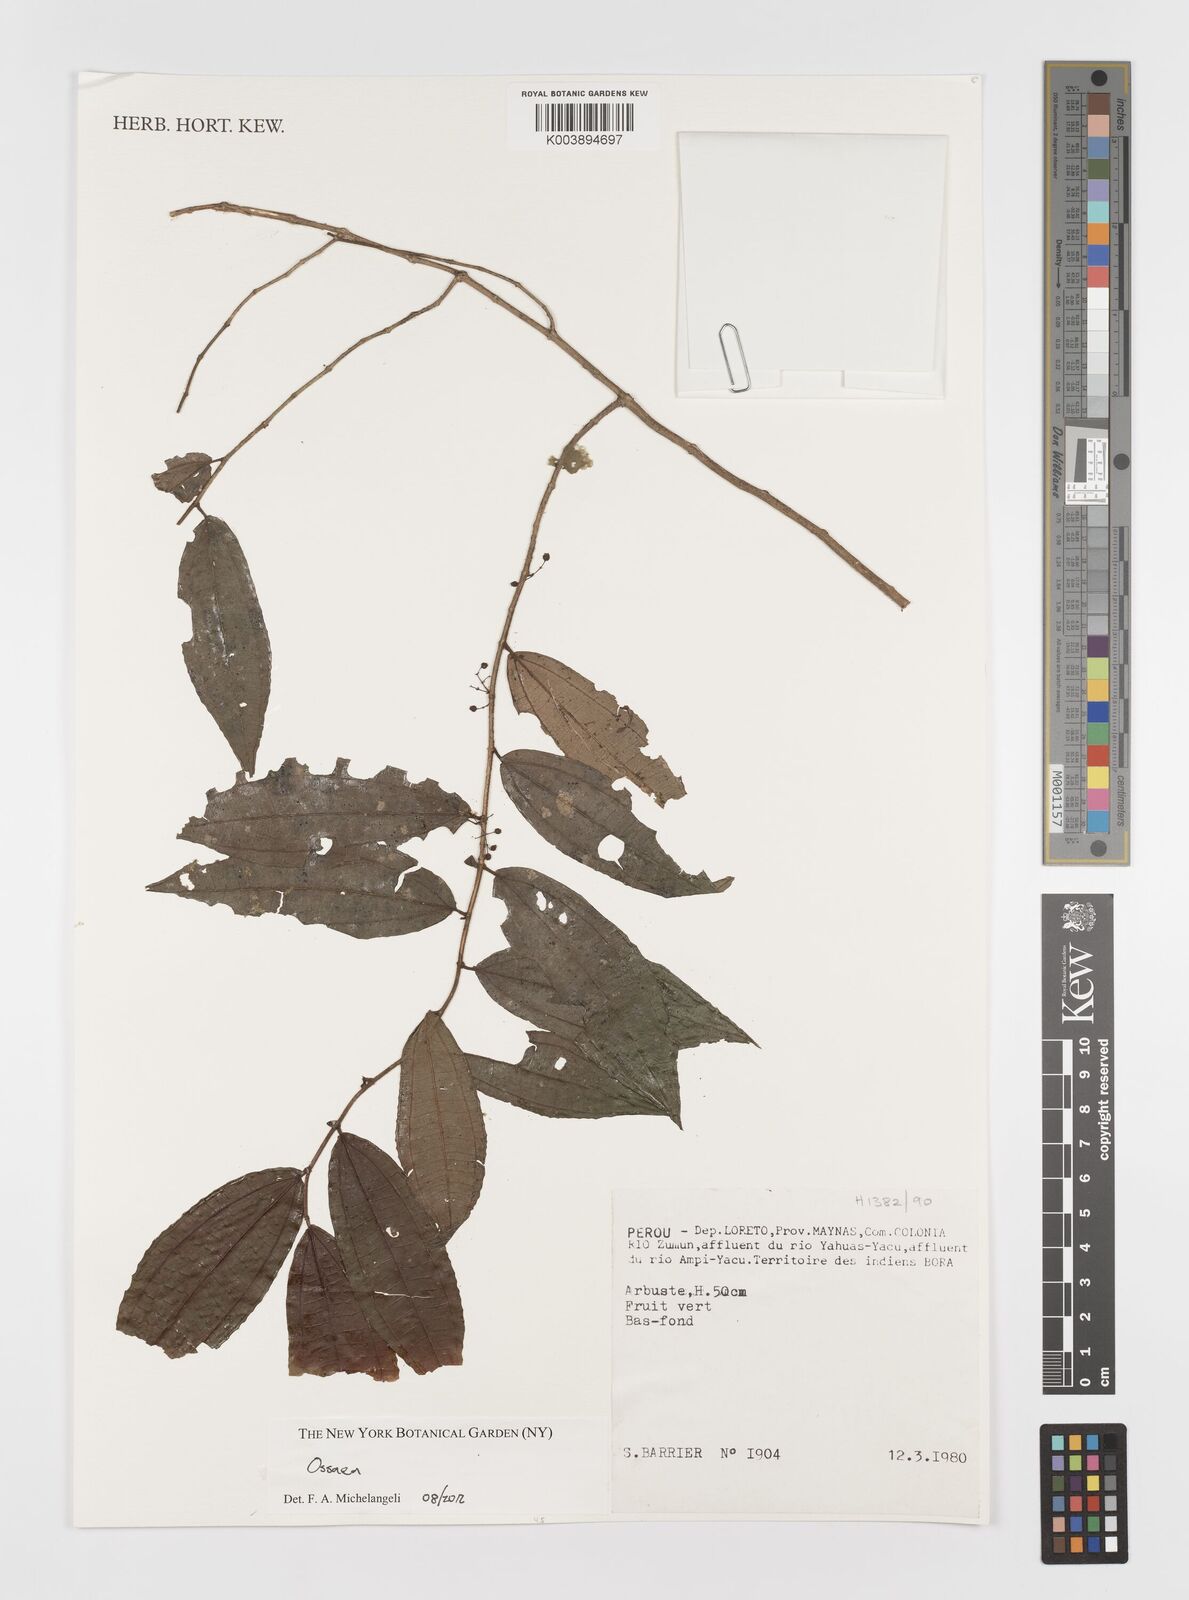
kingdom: Plantae
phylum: Tracheophyta
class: Magnoliopsida
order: Myrtales
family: Melastomataceae
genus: Ossaea
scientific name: Ossaea
